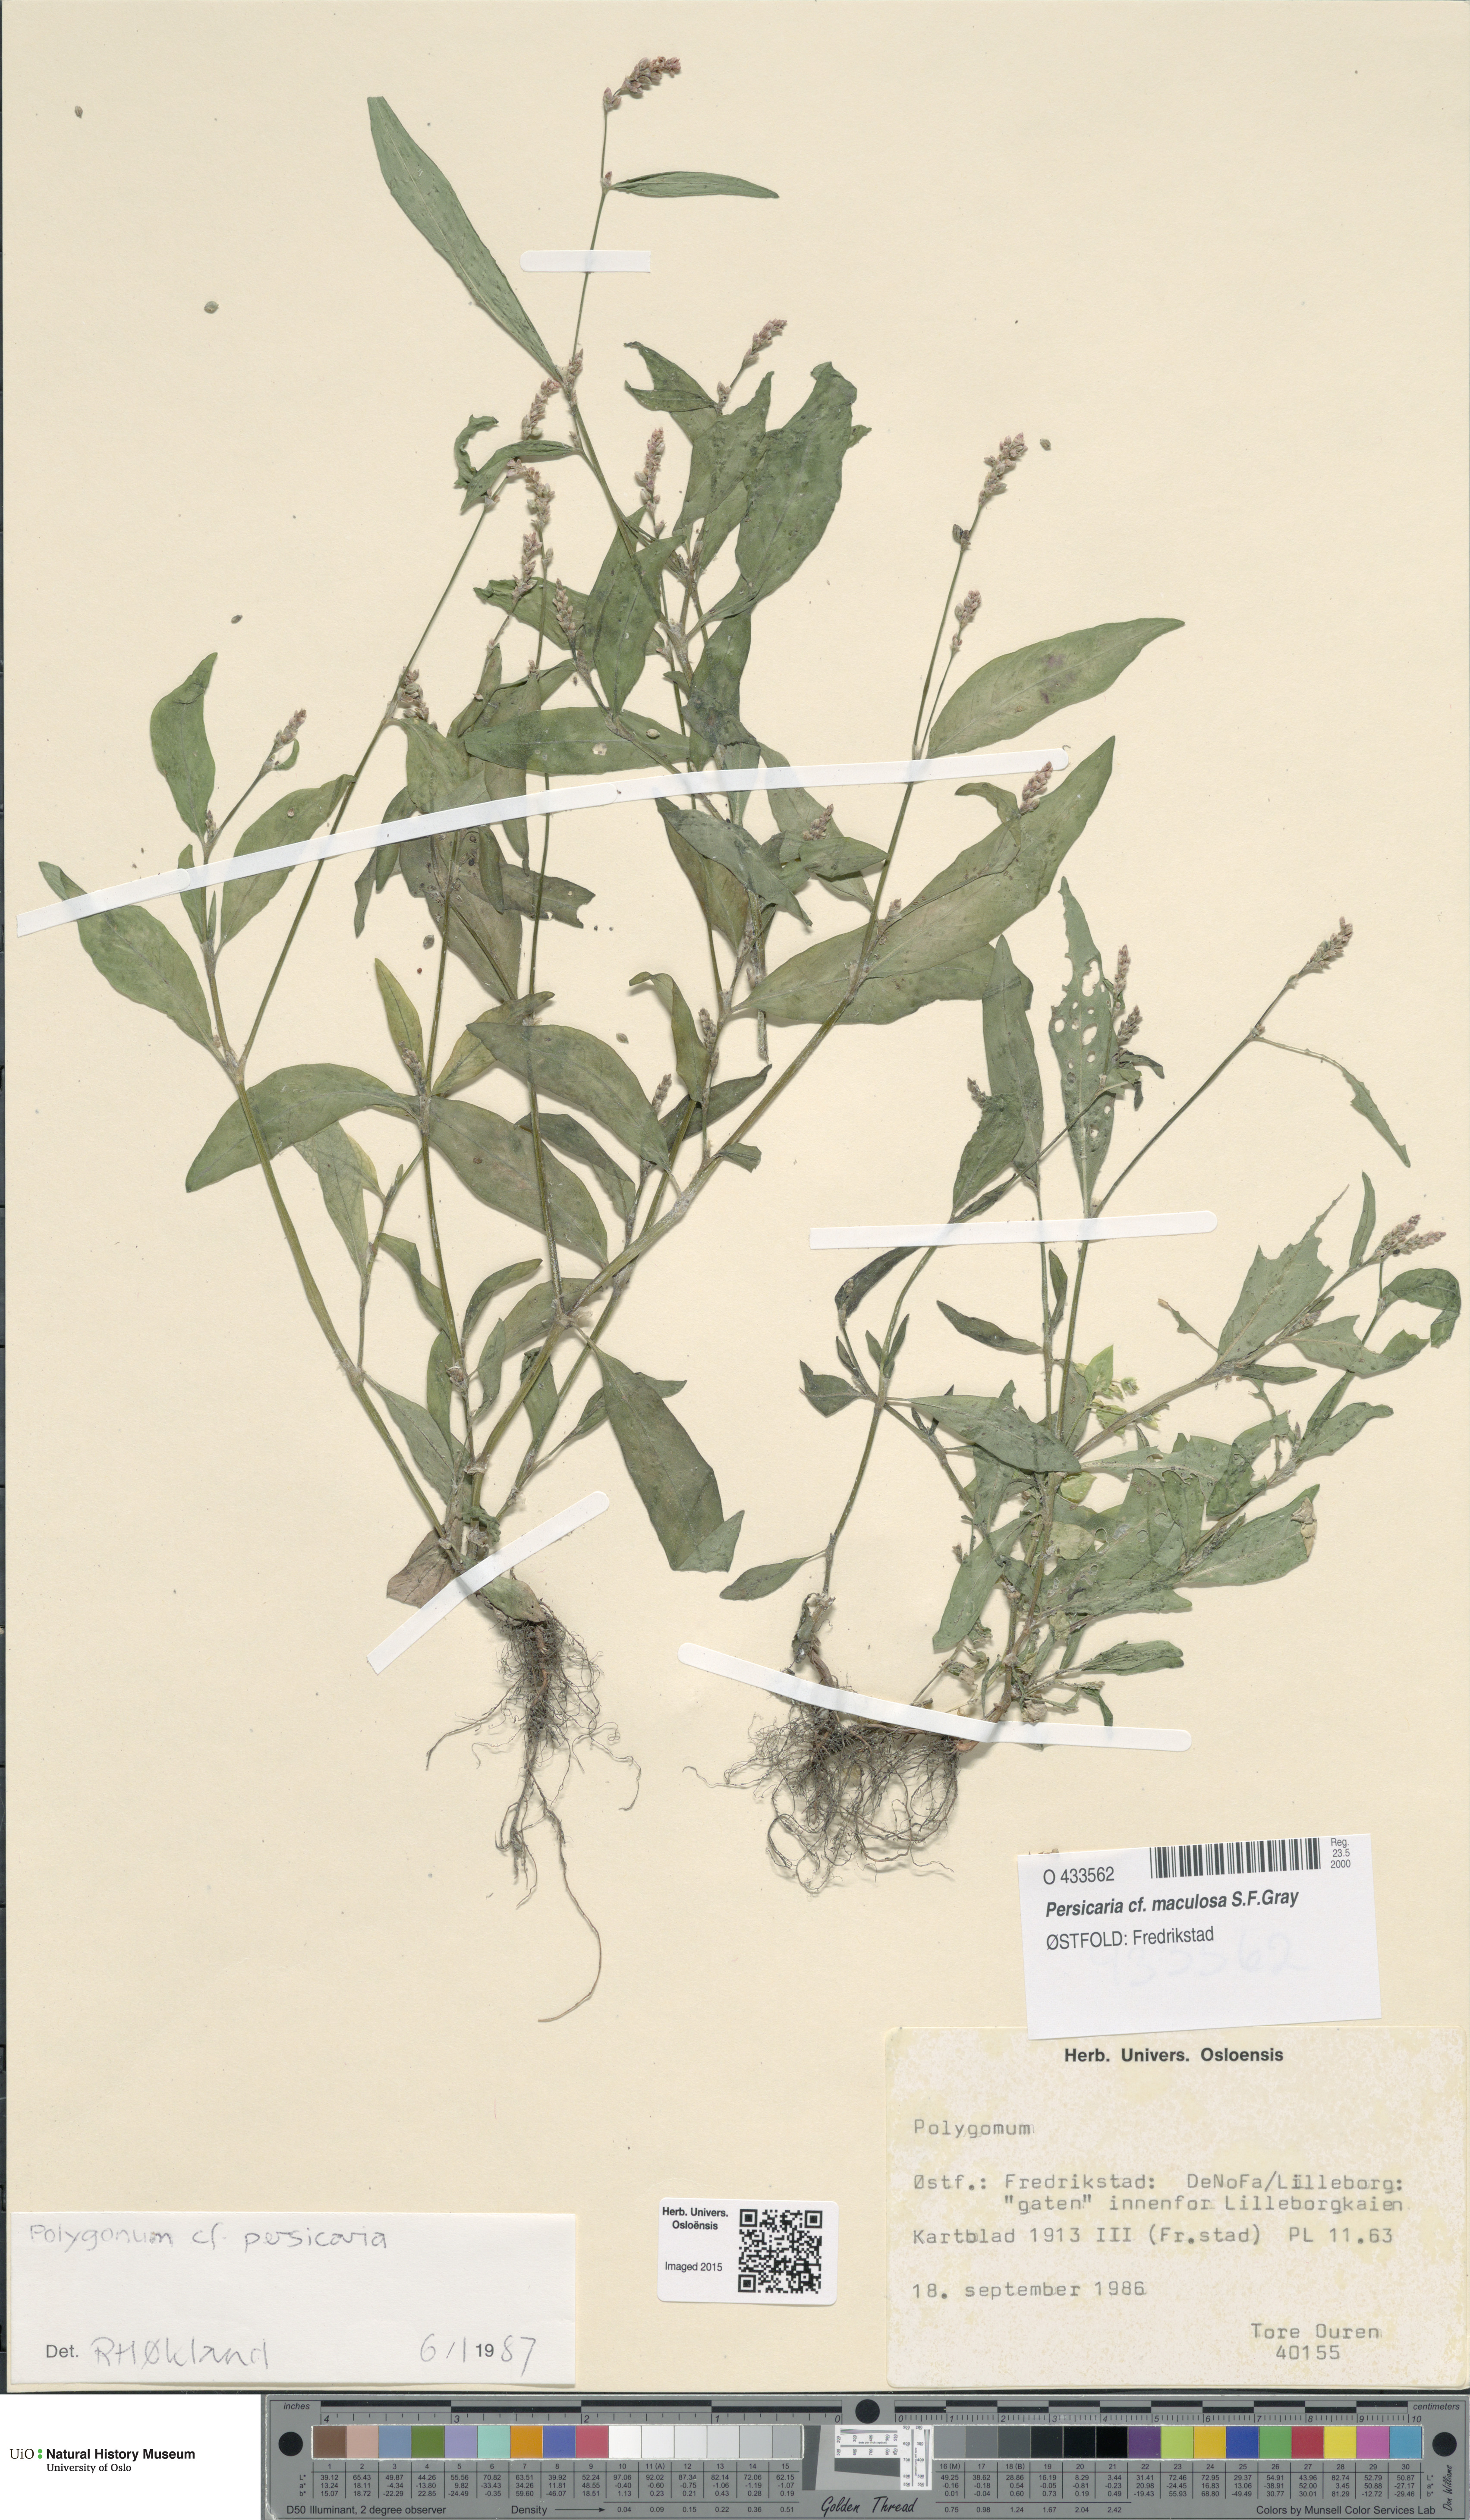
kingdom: Plantae
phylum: Tracheophyta
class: Magnoliopsida
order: Caryophyllales
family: Polygonaceae
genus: Persicaria
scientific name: Persicaria maculosa
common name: Redshank
